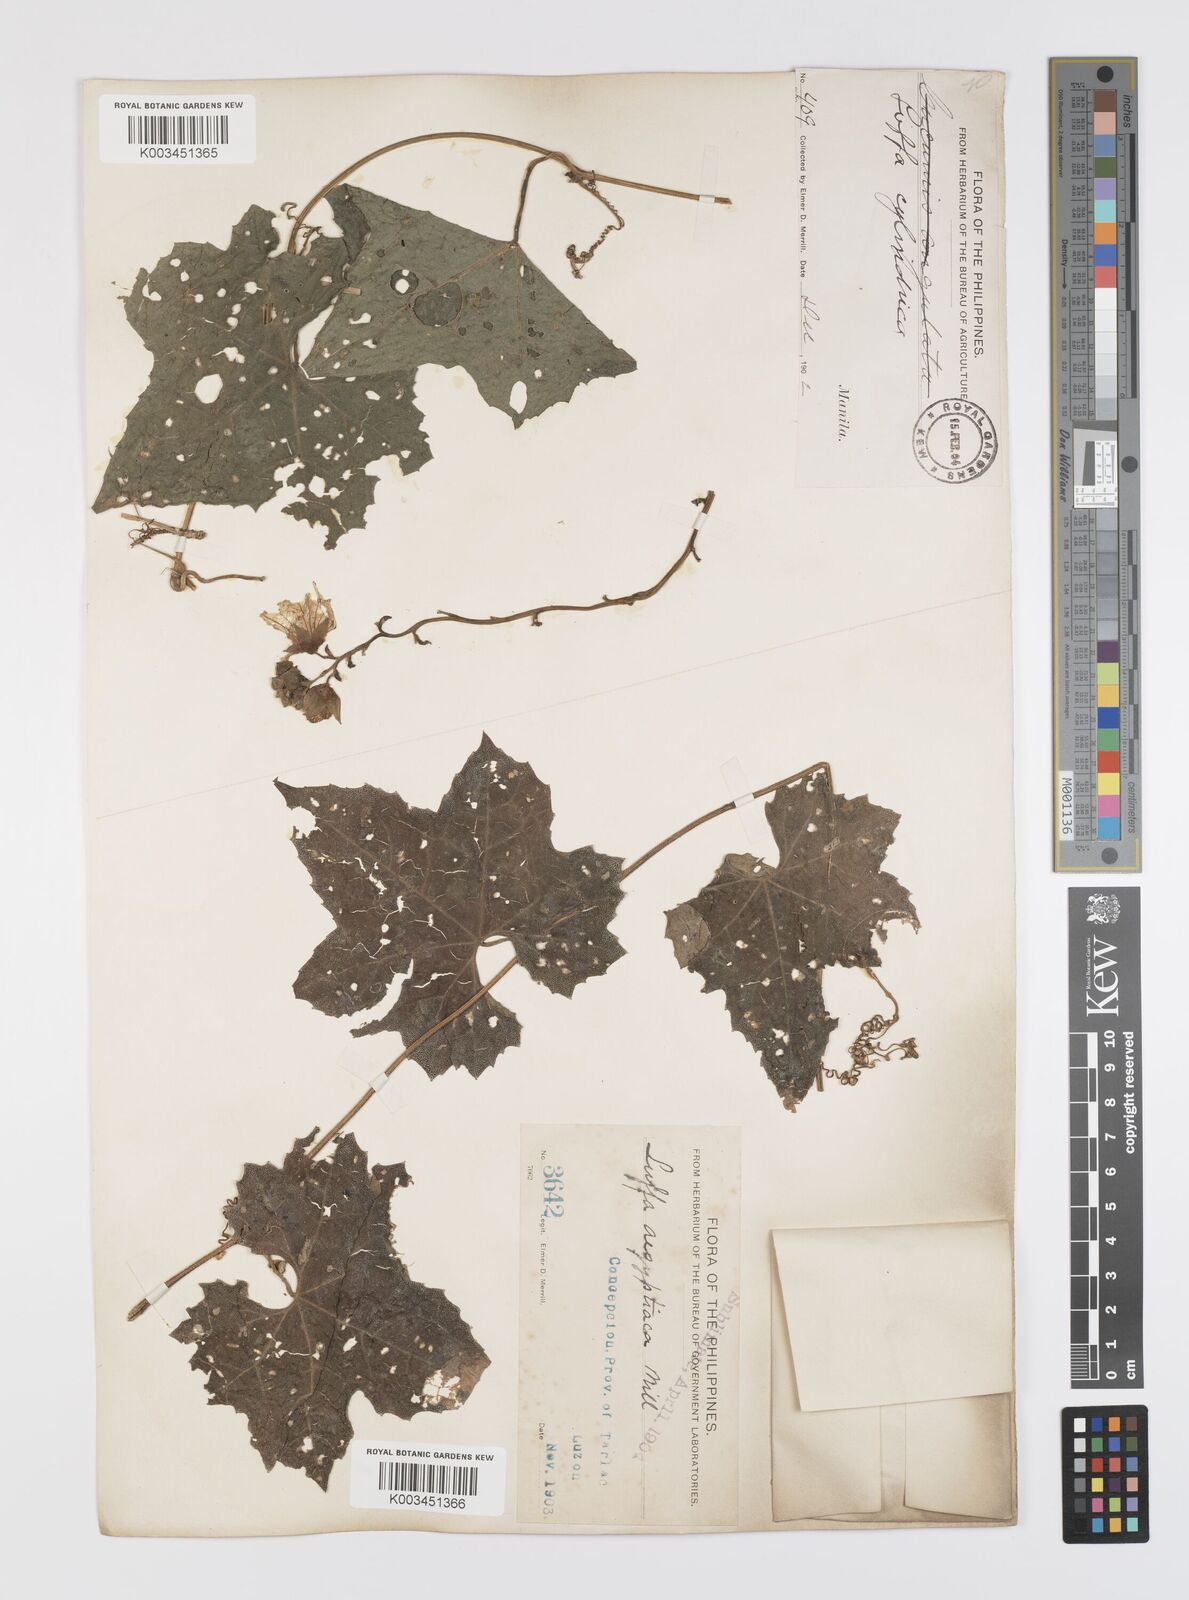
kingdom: Plantae
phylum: Tracheophyta
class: Magnoliopsida
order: Cucurbitales
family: Cucurbitaceae
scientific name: Cucurbitaceae
